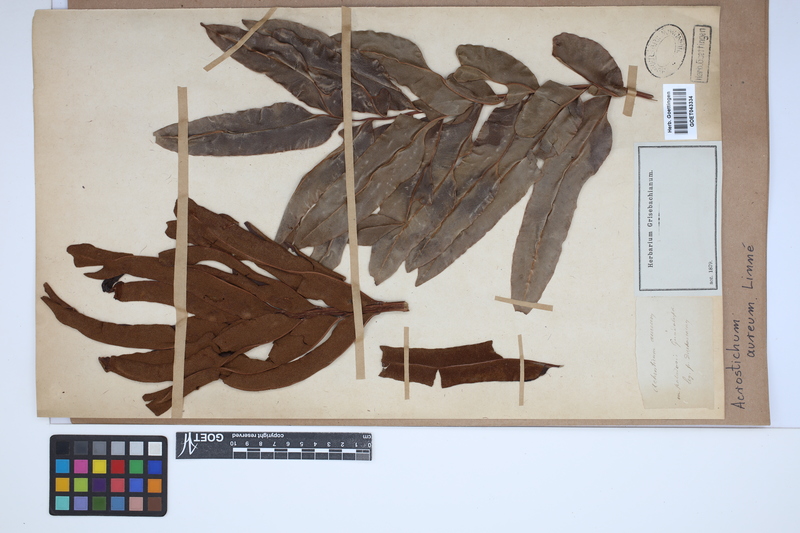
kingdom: Plantae
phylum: Tracheophyta
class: Polypodiopsida
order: Polypodiales
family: Pteridaceae
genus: Acrostichum
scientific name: Acrostichum aureum
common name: Leather fern
